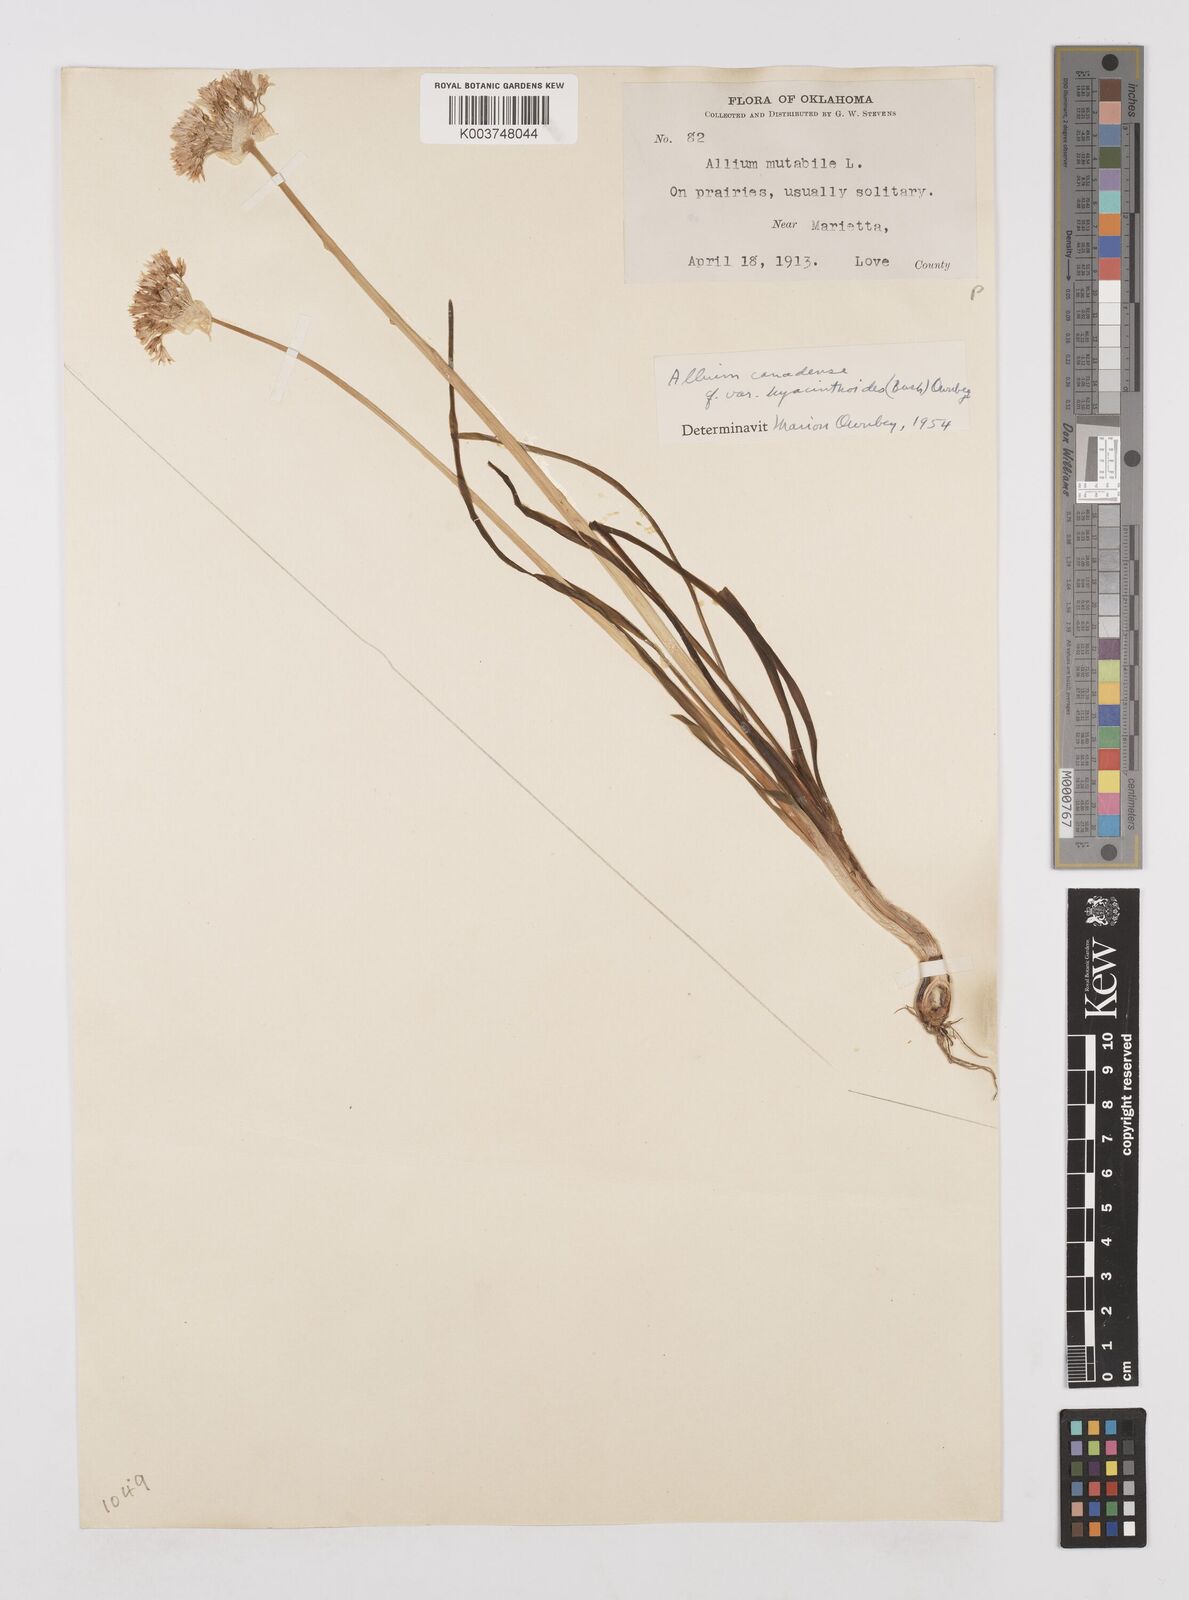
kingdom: Plantae
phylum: Tracheophyta
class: Liliopsida
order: Asparagales
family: Amaryllidaceae
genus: Allium
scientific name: Allium canadense
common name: Meadow garlic
